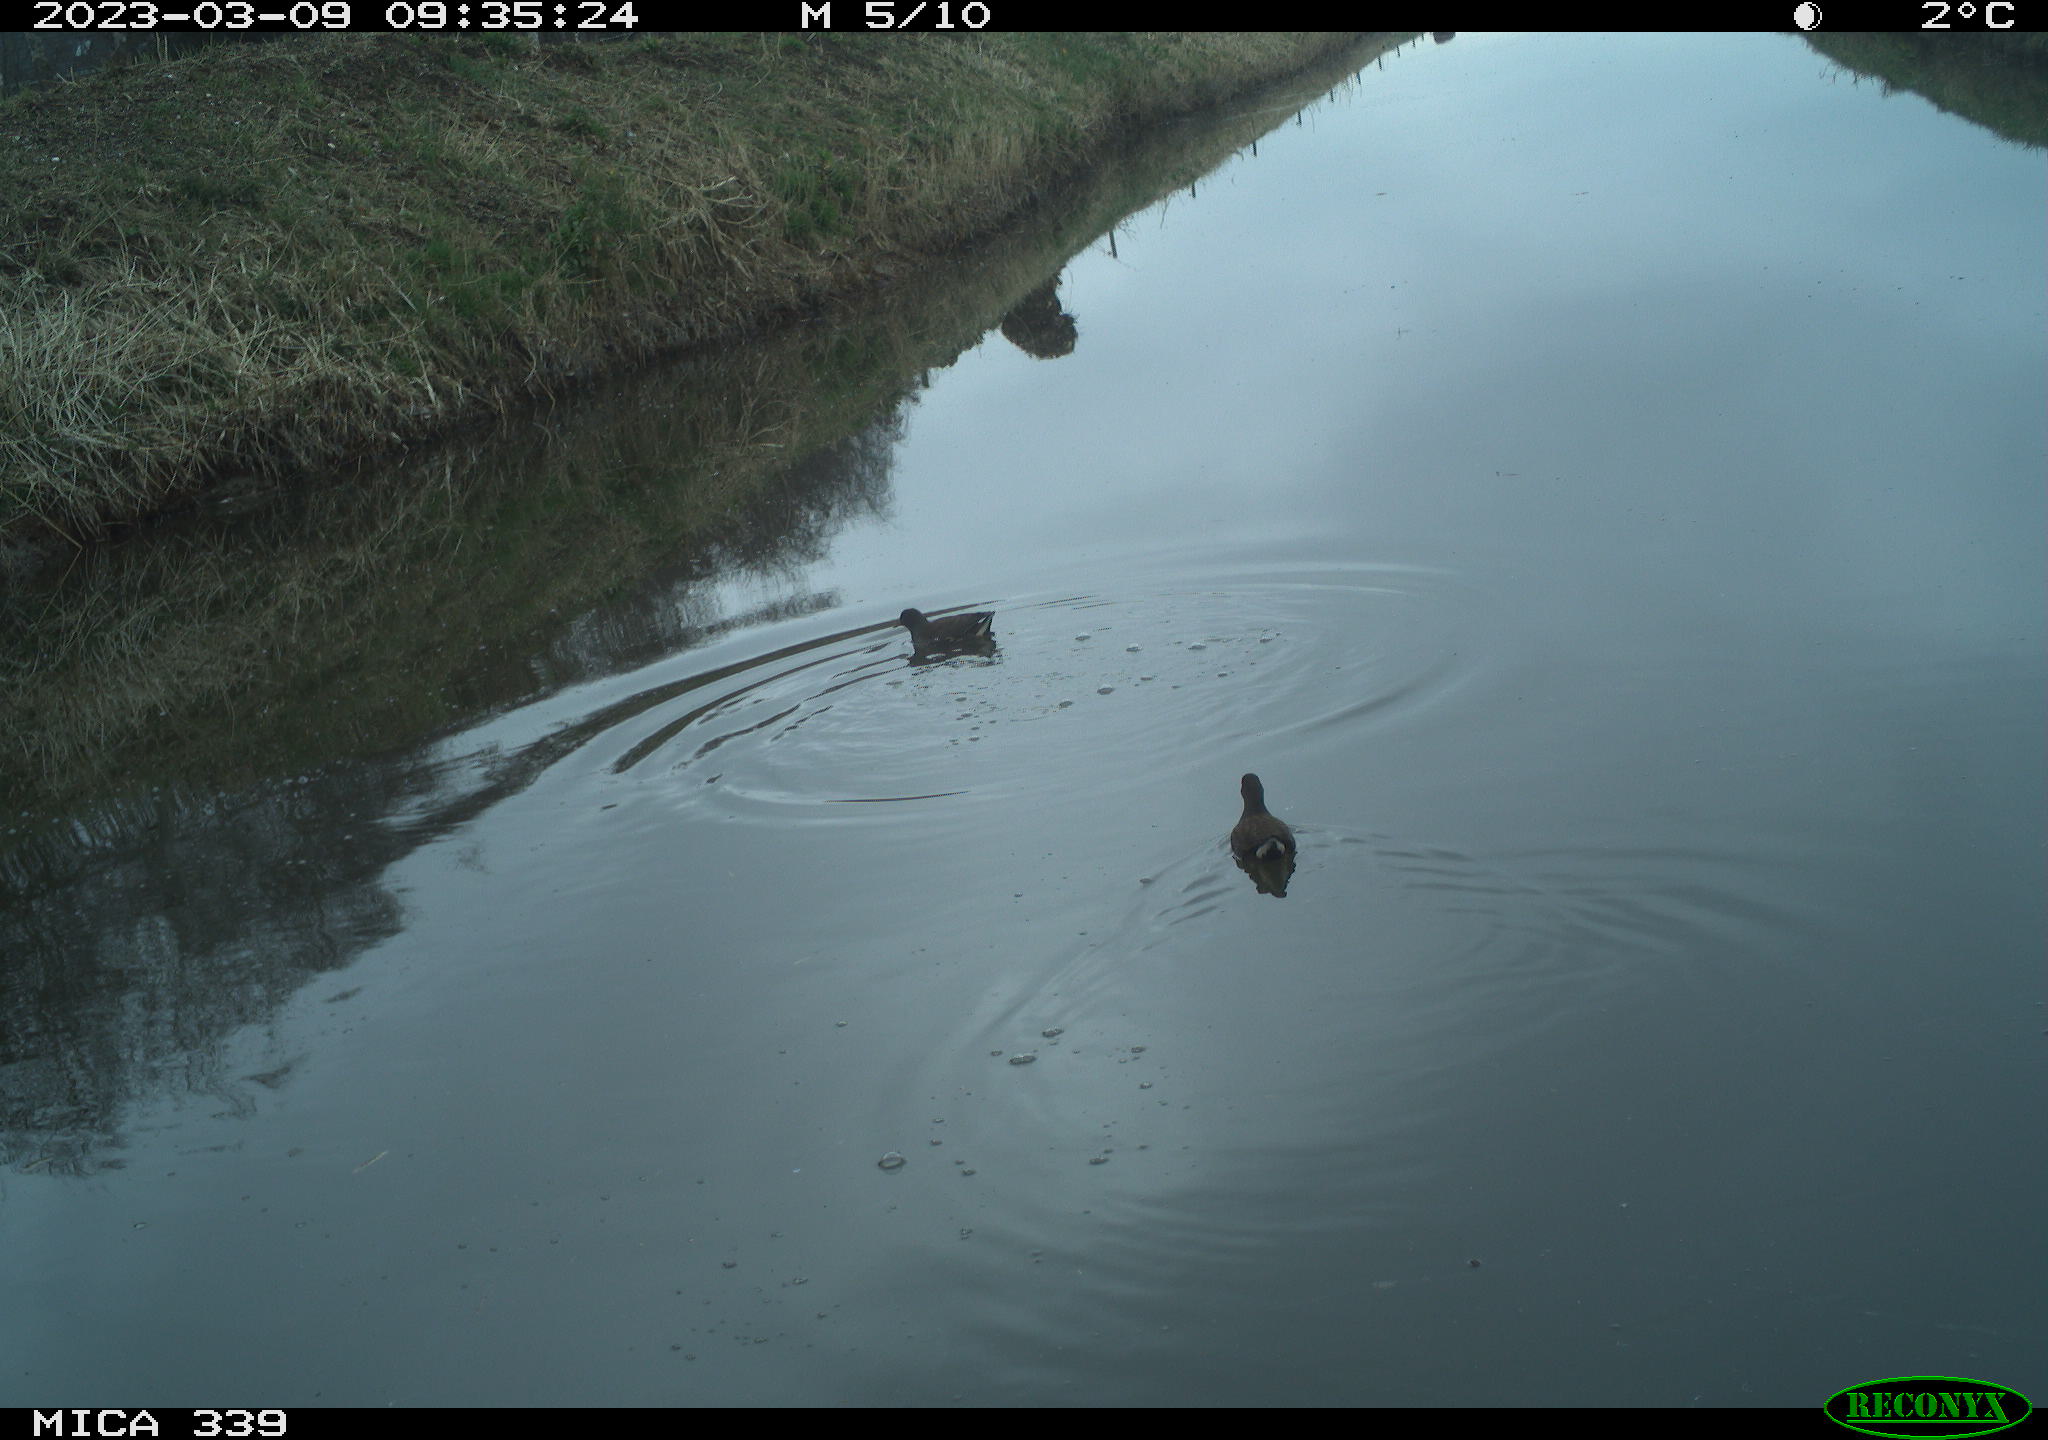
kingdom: Animalia
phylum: Chordata
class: Aves
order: Gruiformes
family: Rallidae
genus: Gallinula
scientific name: Gallinula chloropus
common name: Common moorhen
